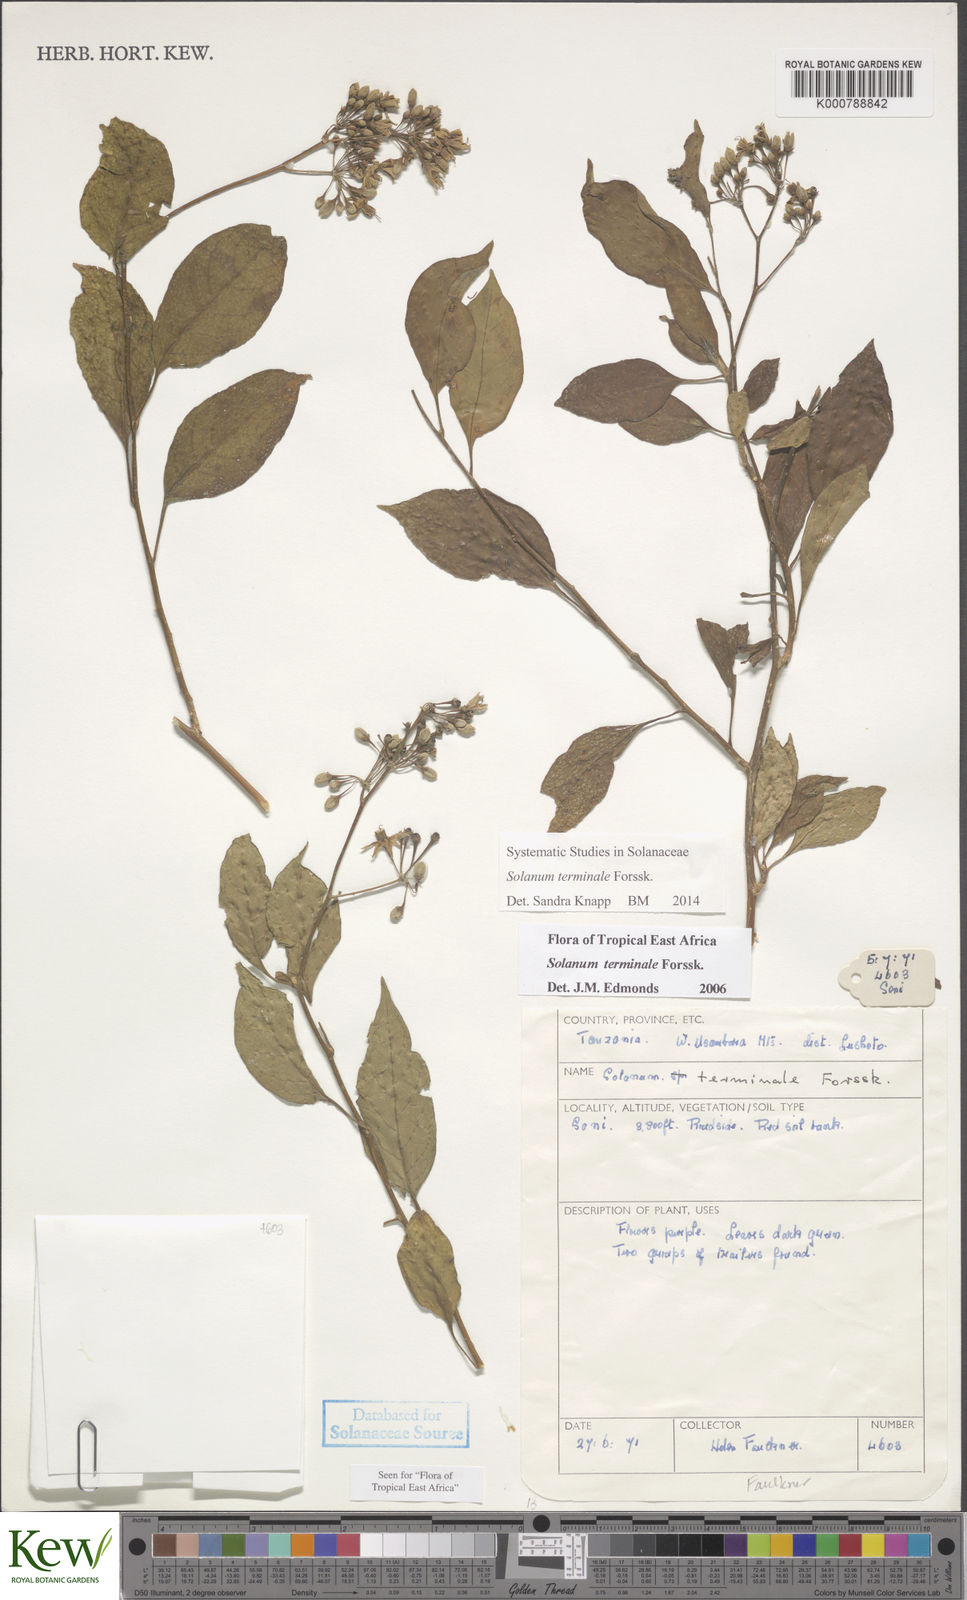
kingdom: Plantae
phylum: Tracheophyta
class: Magnoliopsida
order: Solanales
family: Solanaceae
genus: Solanum
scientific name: Solanum terminale
